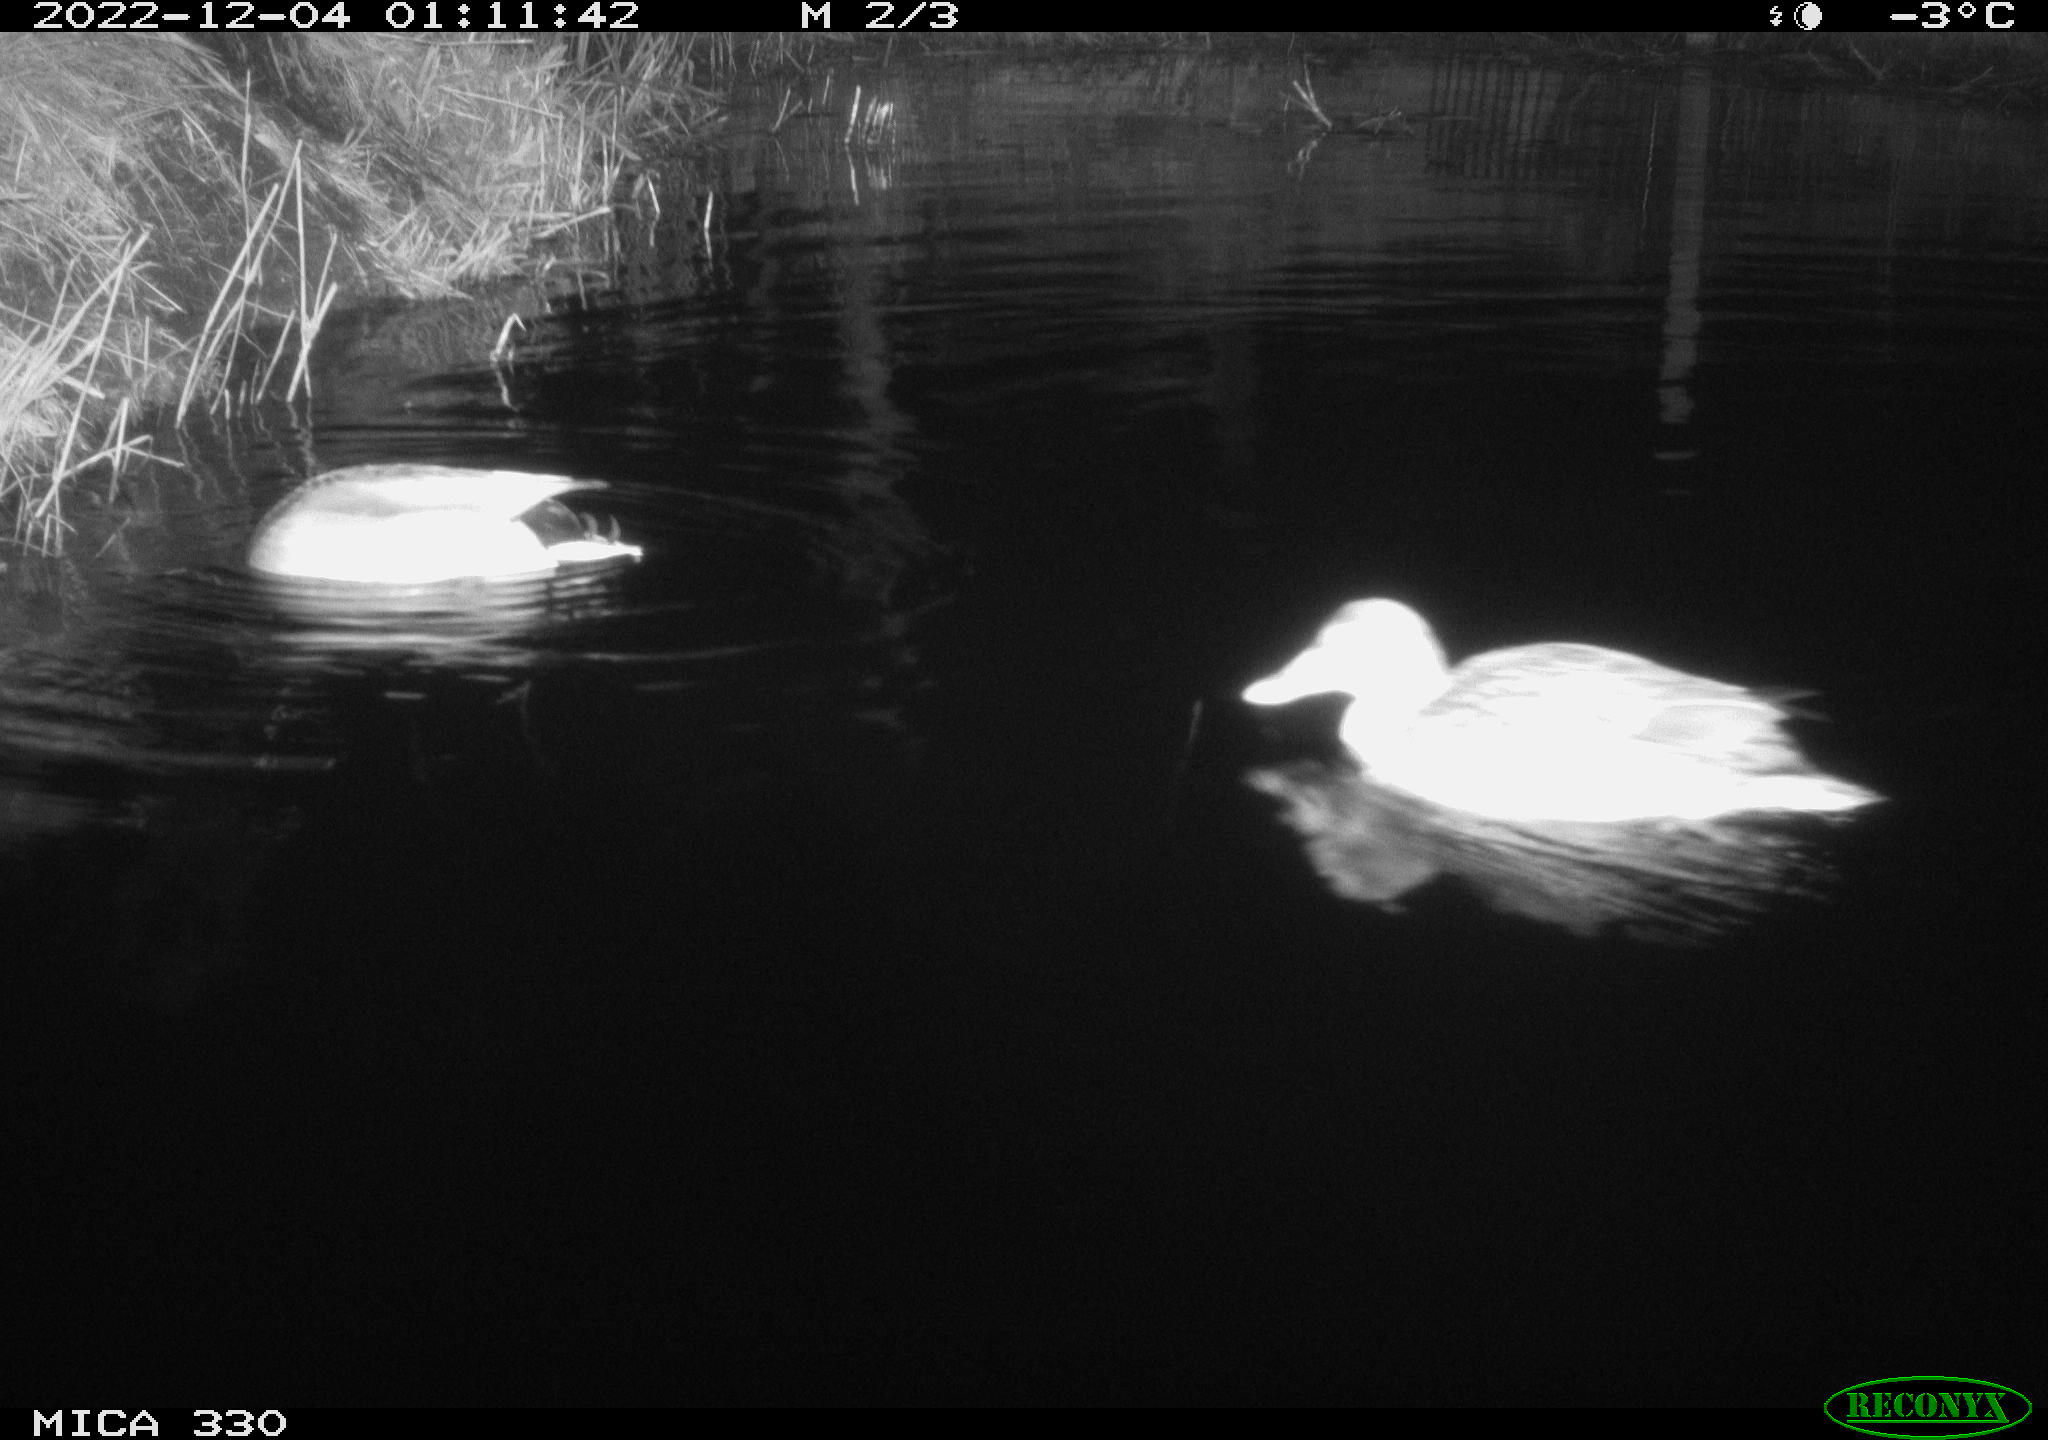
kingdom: Animalia
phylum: Chordata
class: Aves
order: Anseriformes
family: Anatidae
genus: Anas
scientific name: Anas
